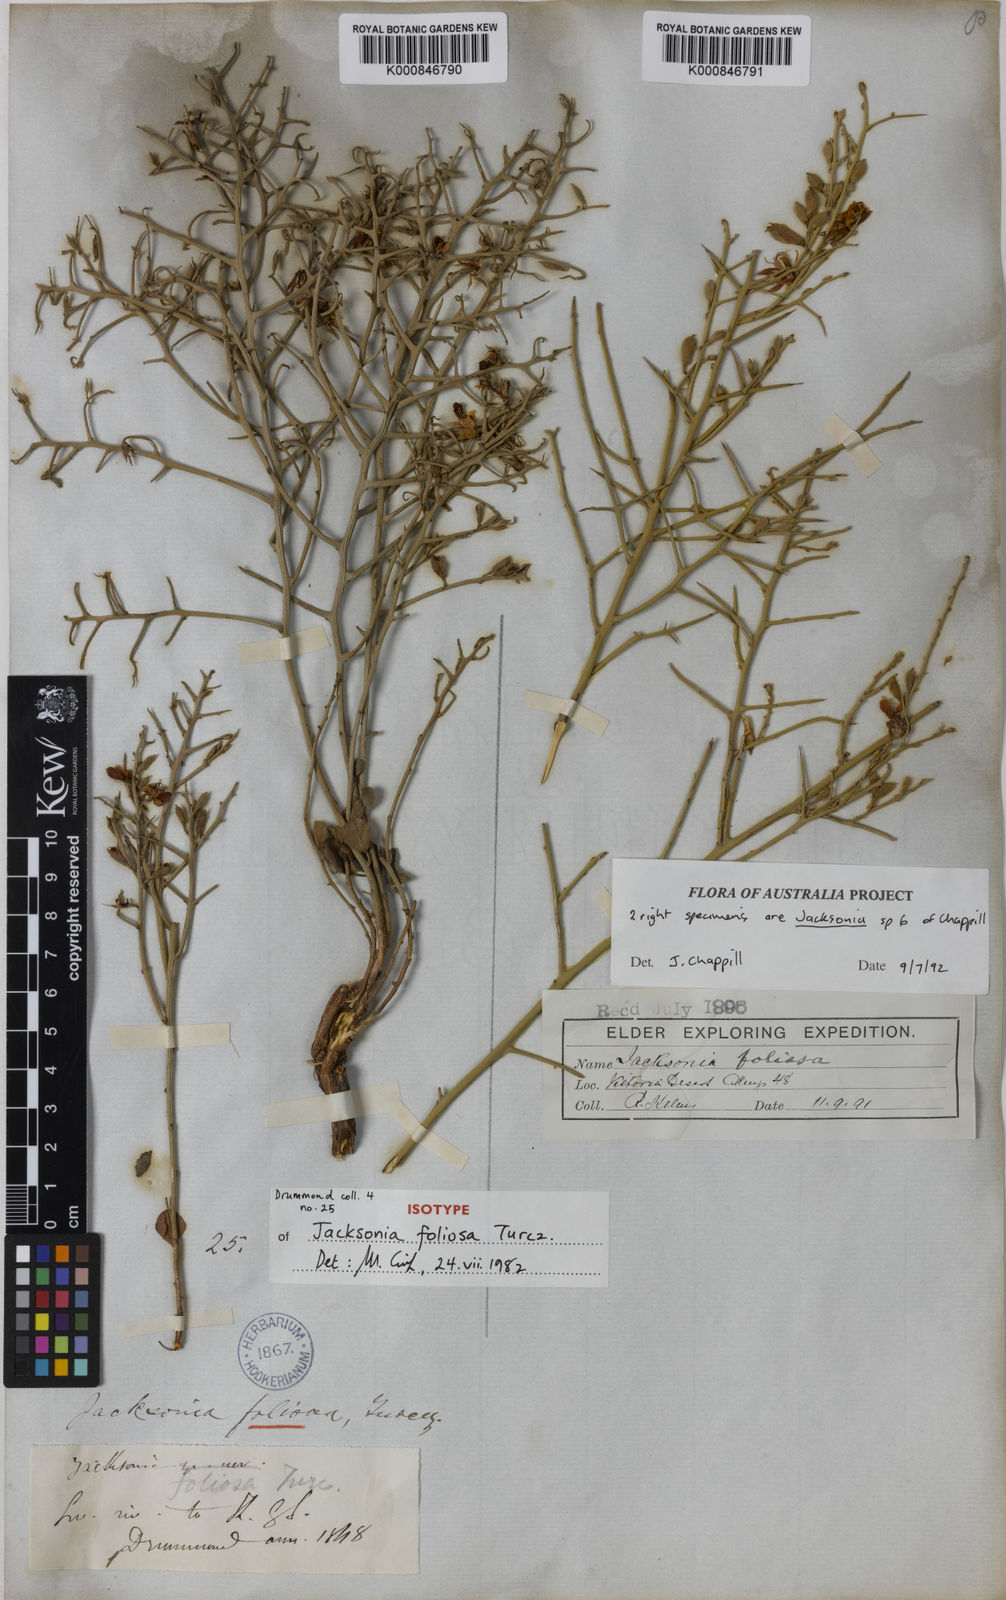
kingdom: Plantae
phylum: Tracheophyta
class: Magnoliopsida
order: Fabales
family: Fabaceae
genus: Jacksonia
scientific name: Jacksonia foliosa
